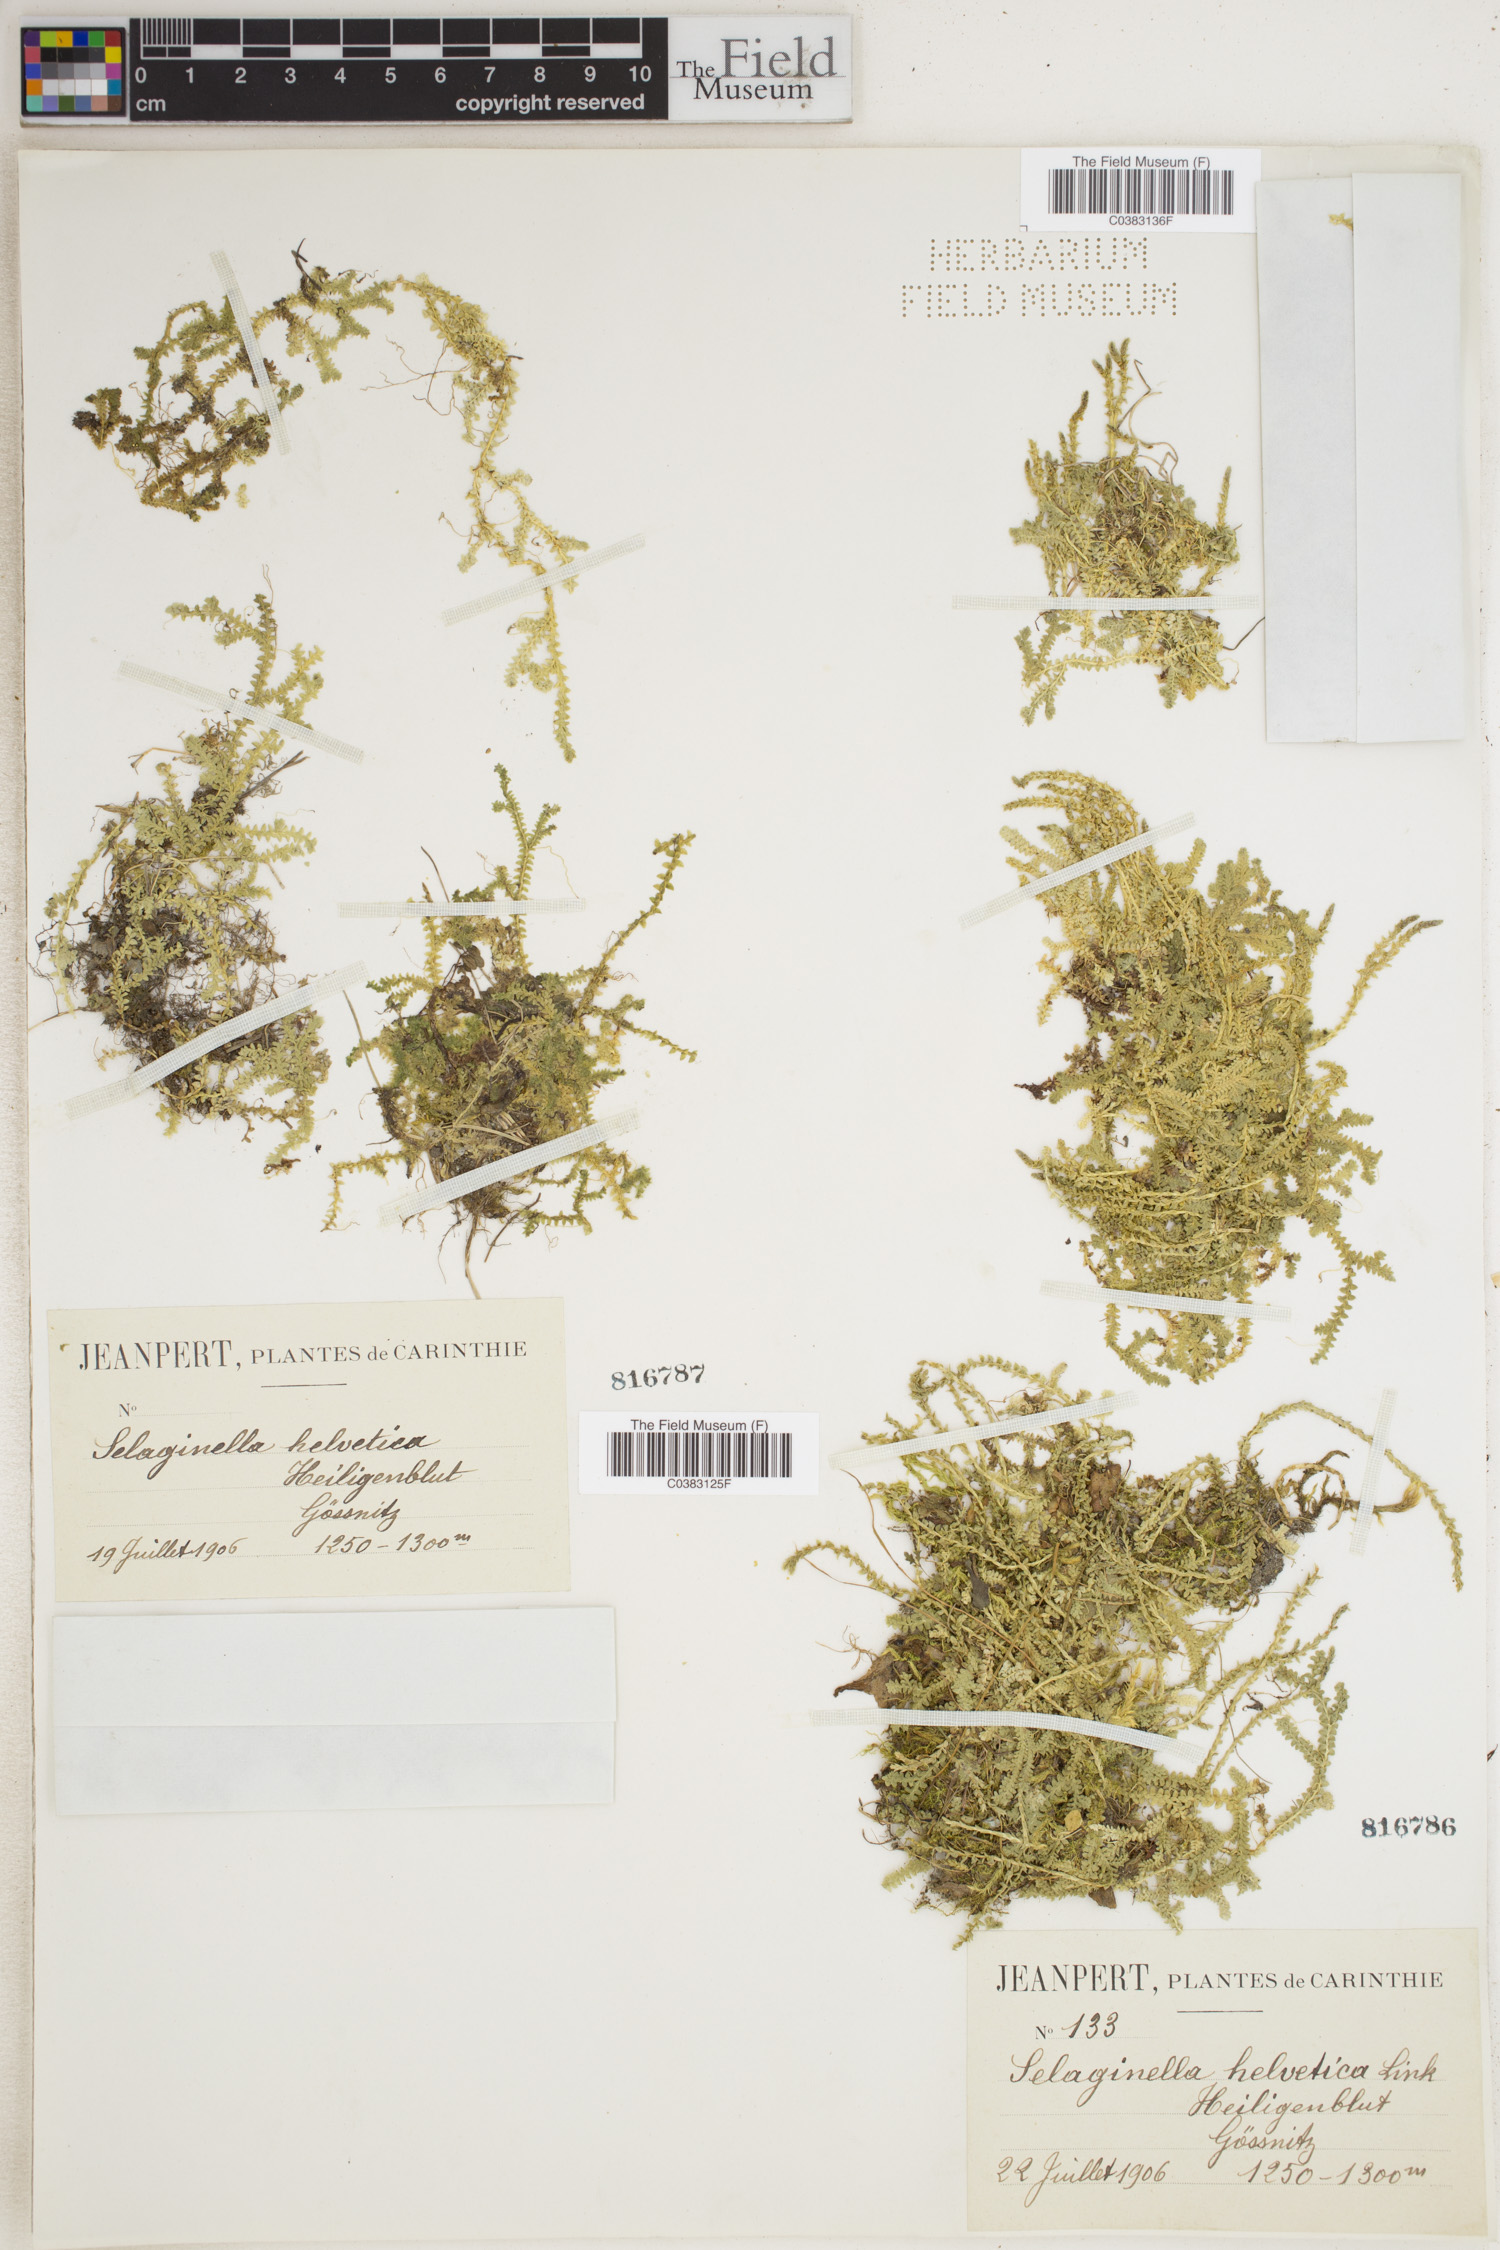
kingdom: Plantae
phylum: Tracheophyta
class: Lycopodiopsida
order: Selaginellales
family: Selaginellaceae
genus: Selaginella
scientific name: Selaginella helvetica
